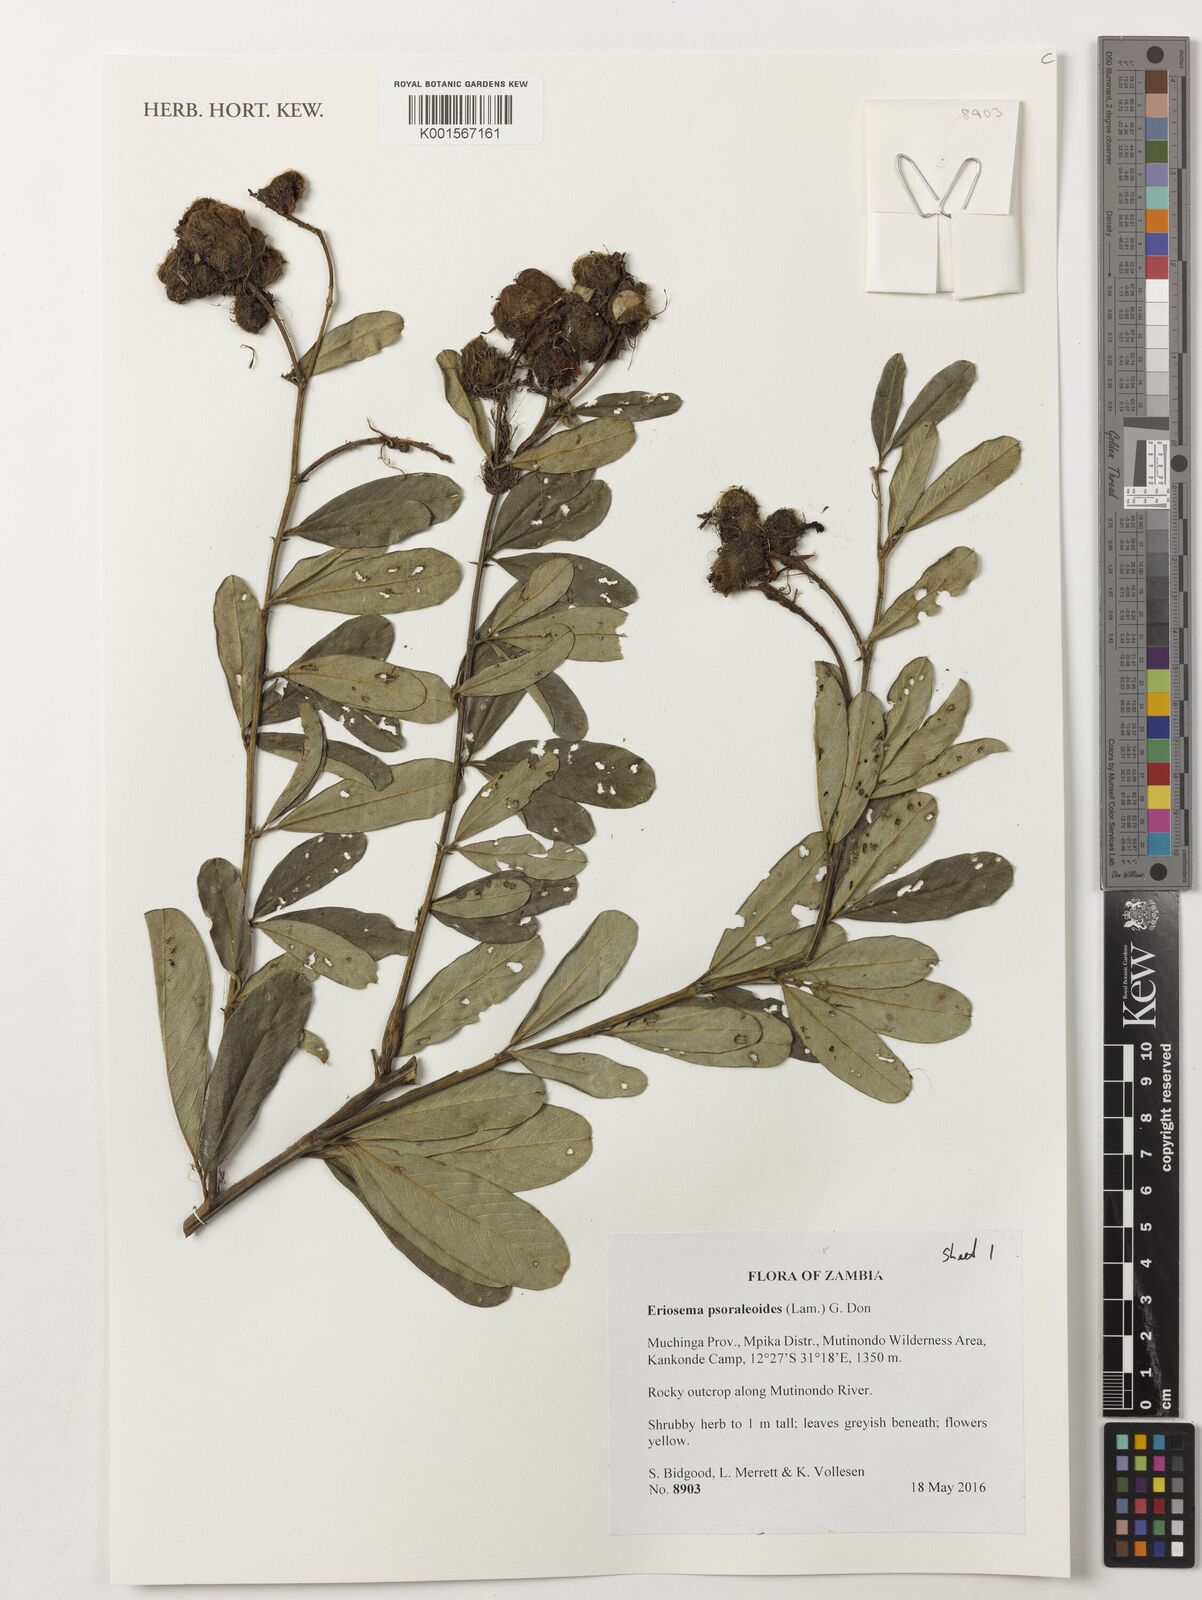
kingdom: Plantae
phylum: Tracheophyta
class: Magnoliopsida
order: Fabales
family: Fabaceae
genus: Eriosema
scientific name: Eriosema psoraleoides
